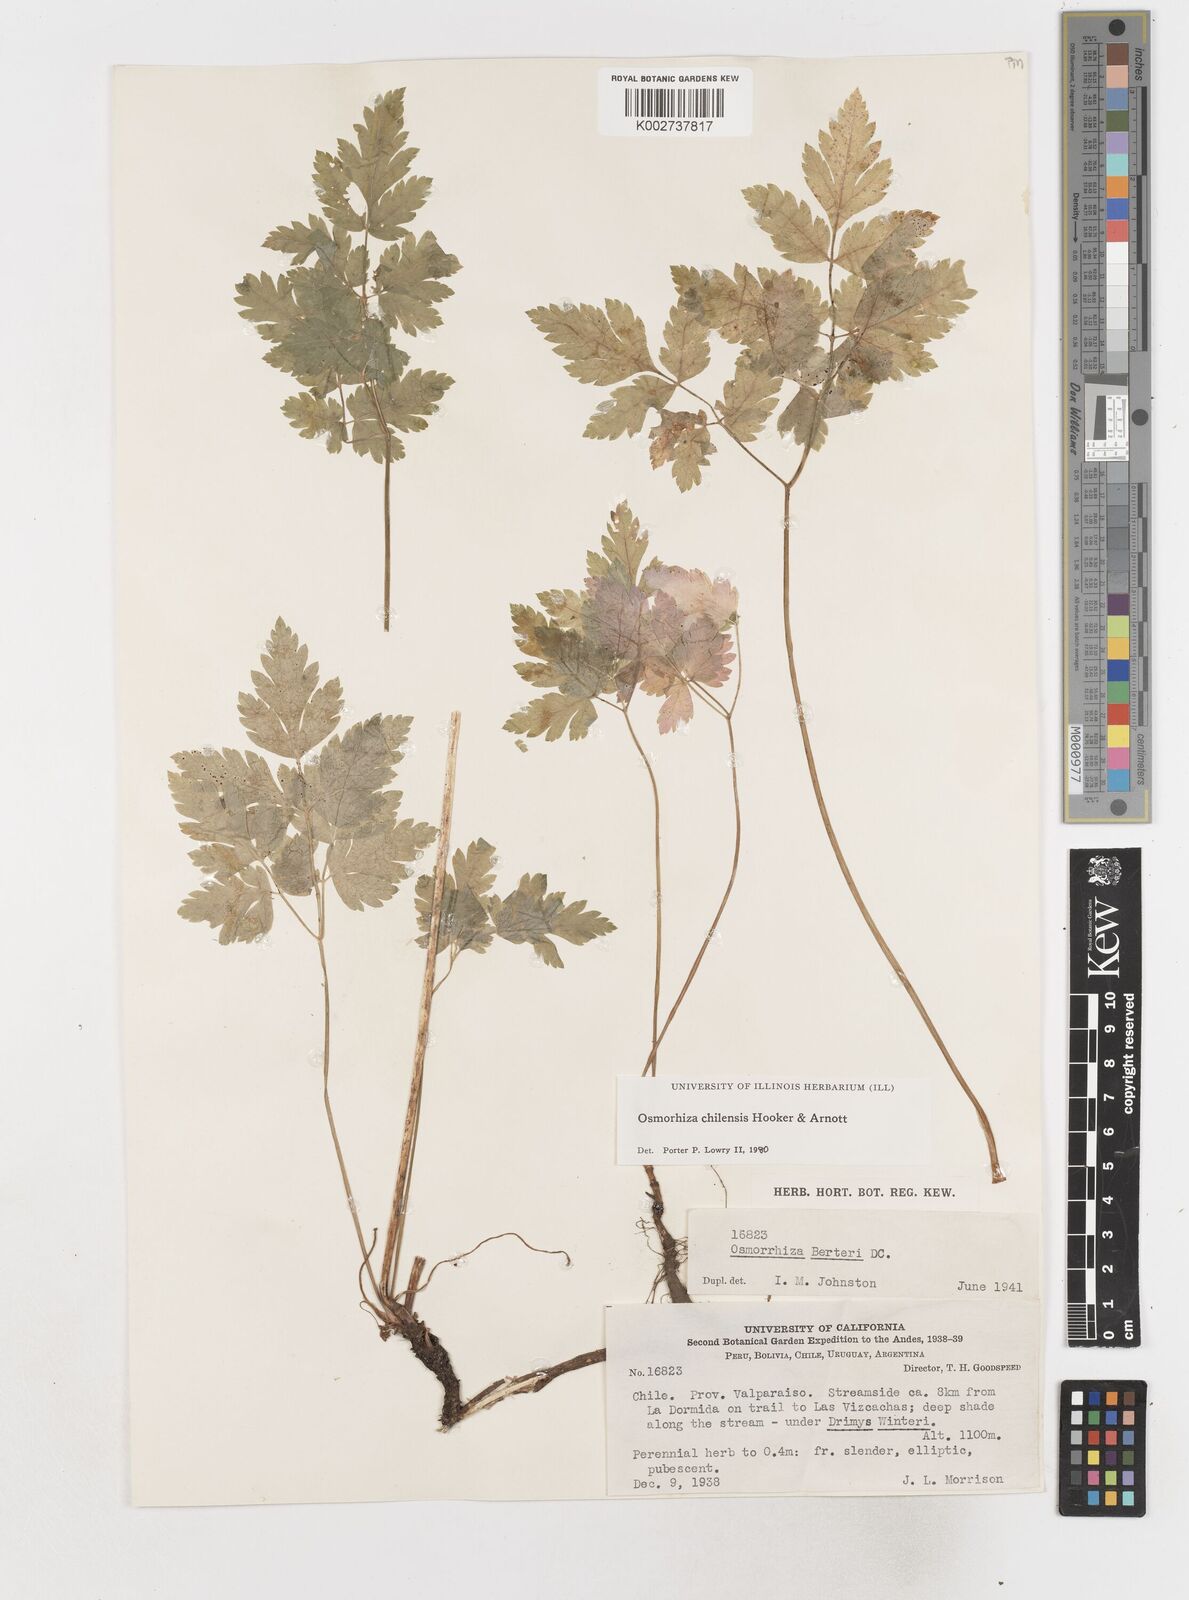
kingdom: Plantae
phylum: Tracheophyta
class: Magnoliopsida
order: Apiales
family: Apiaceae
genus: Osmorhiza
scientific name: Osmorhiza berteroi
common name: Mountain sweet cicely
